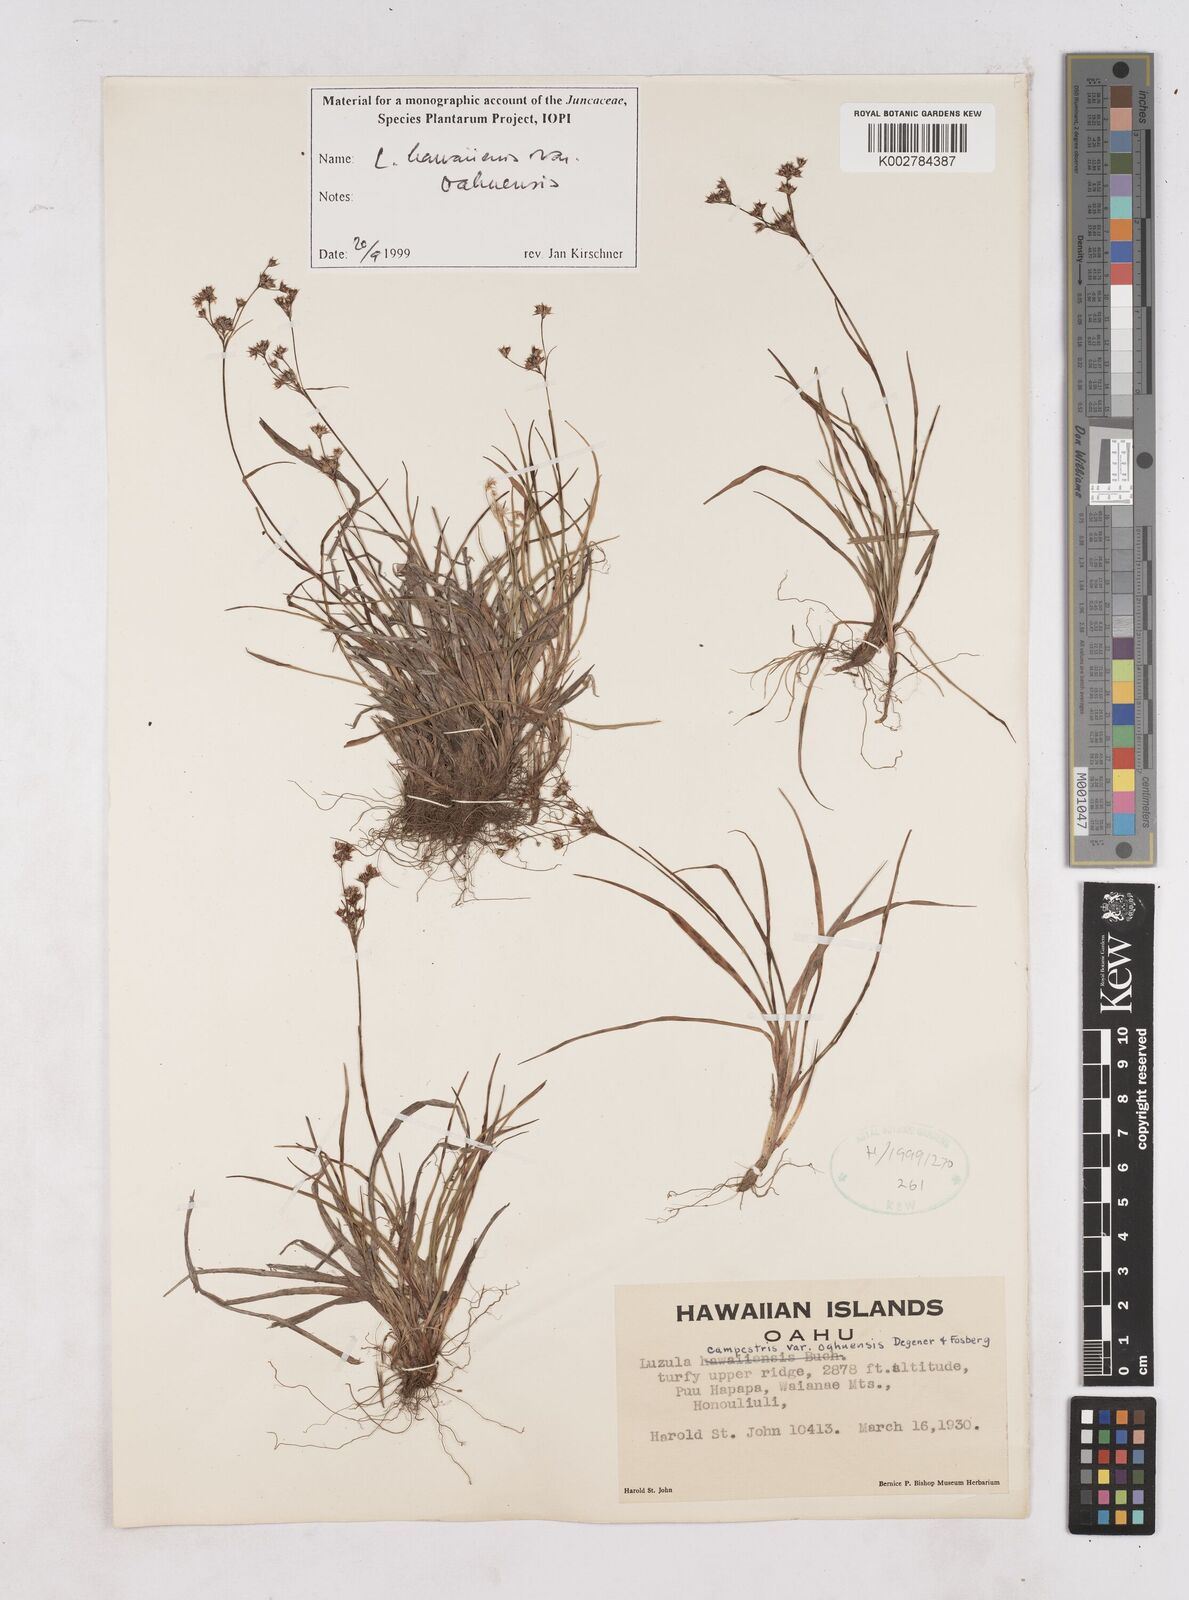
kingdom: Plantae
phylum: Tracheophyta
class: Liliopsida
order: Poales
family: Juncaceae
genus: Luzula
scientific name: Luzula campestris
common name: Field wood-rush
